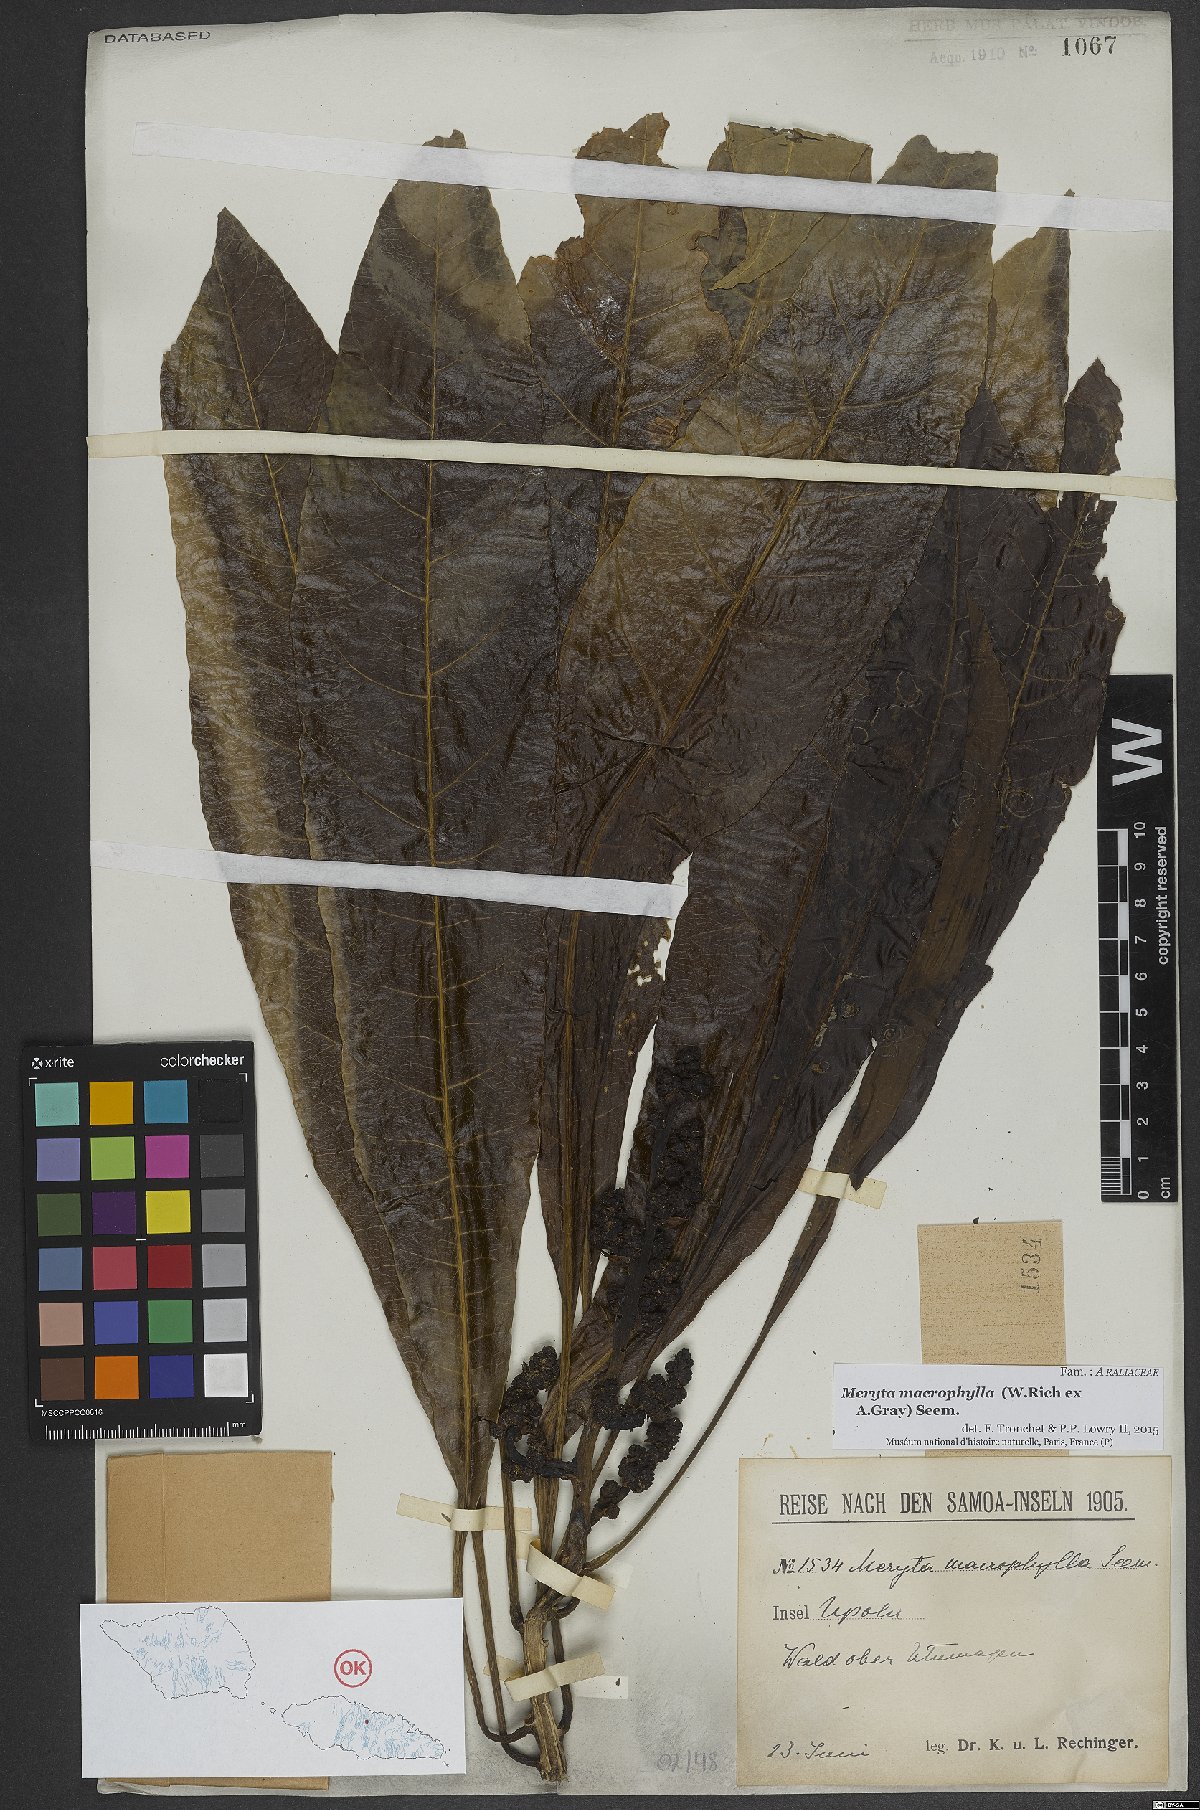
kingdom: Plantae
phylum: Tracheophyta
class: Magnoliopsida
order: Apiales
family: Araliaceae
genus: Meryta
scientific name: Meryta macrophylla
